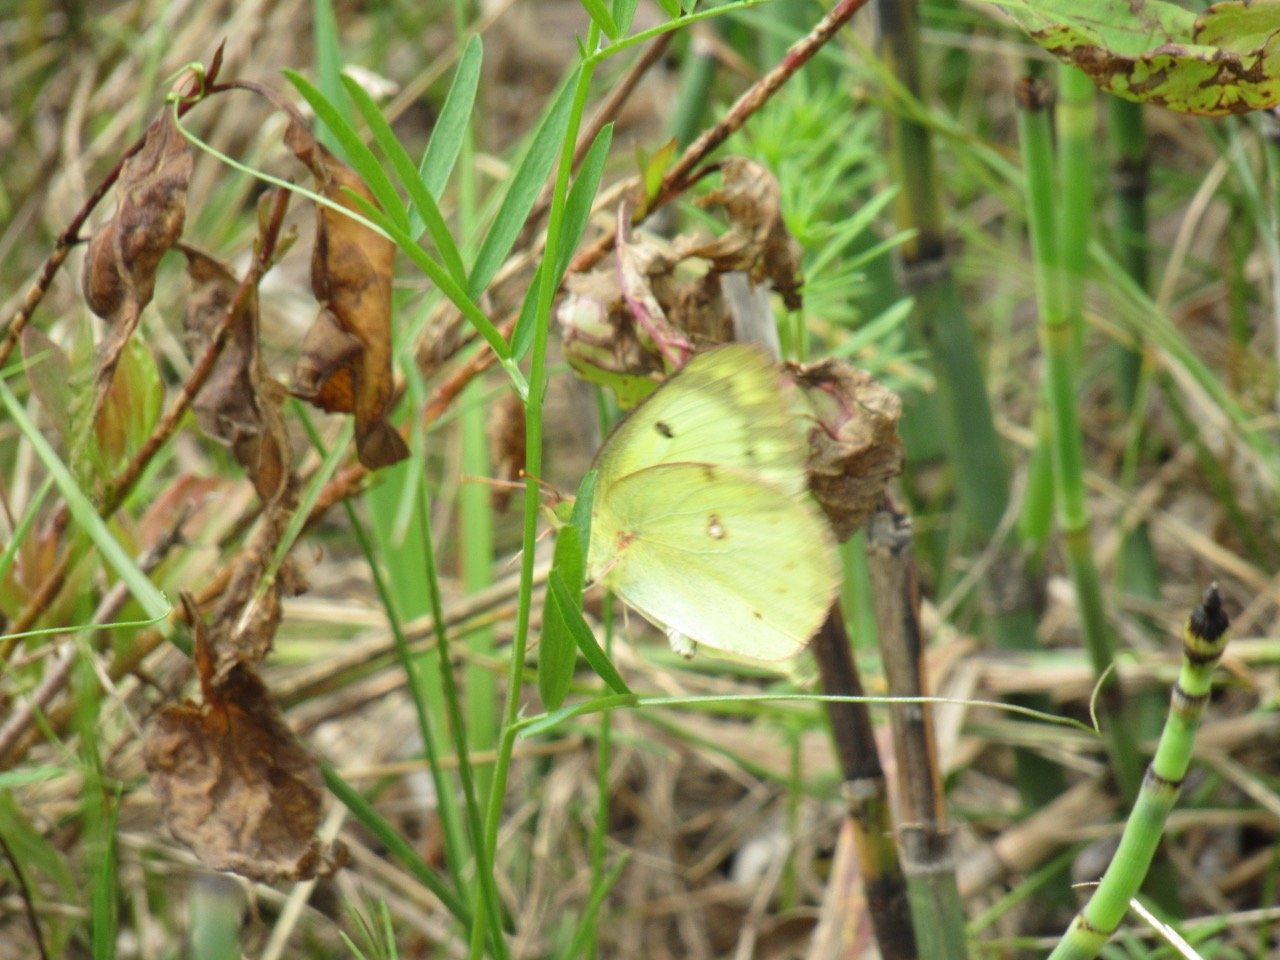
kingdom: Animalia
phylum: Arthropoda
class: Insecta
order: Lepidoptera
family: Pieridae
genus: Colias
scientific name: Colias philodice
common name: Clouded Sulphur
